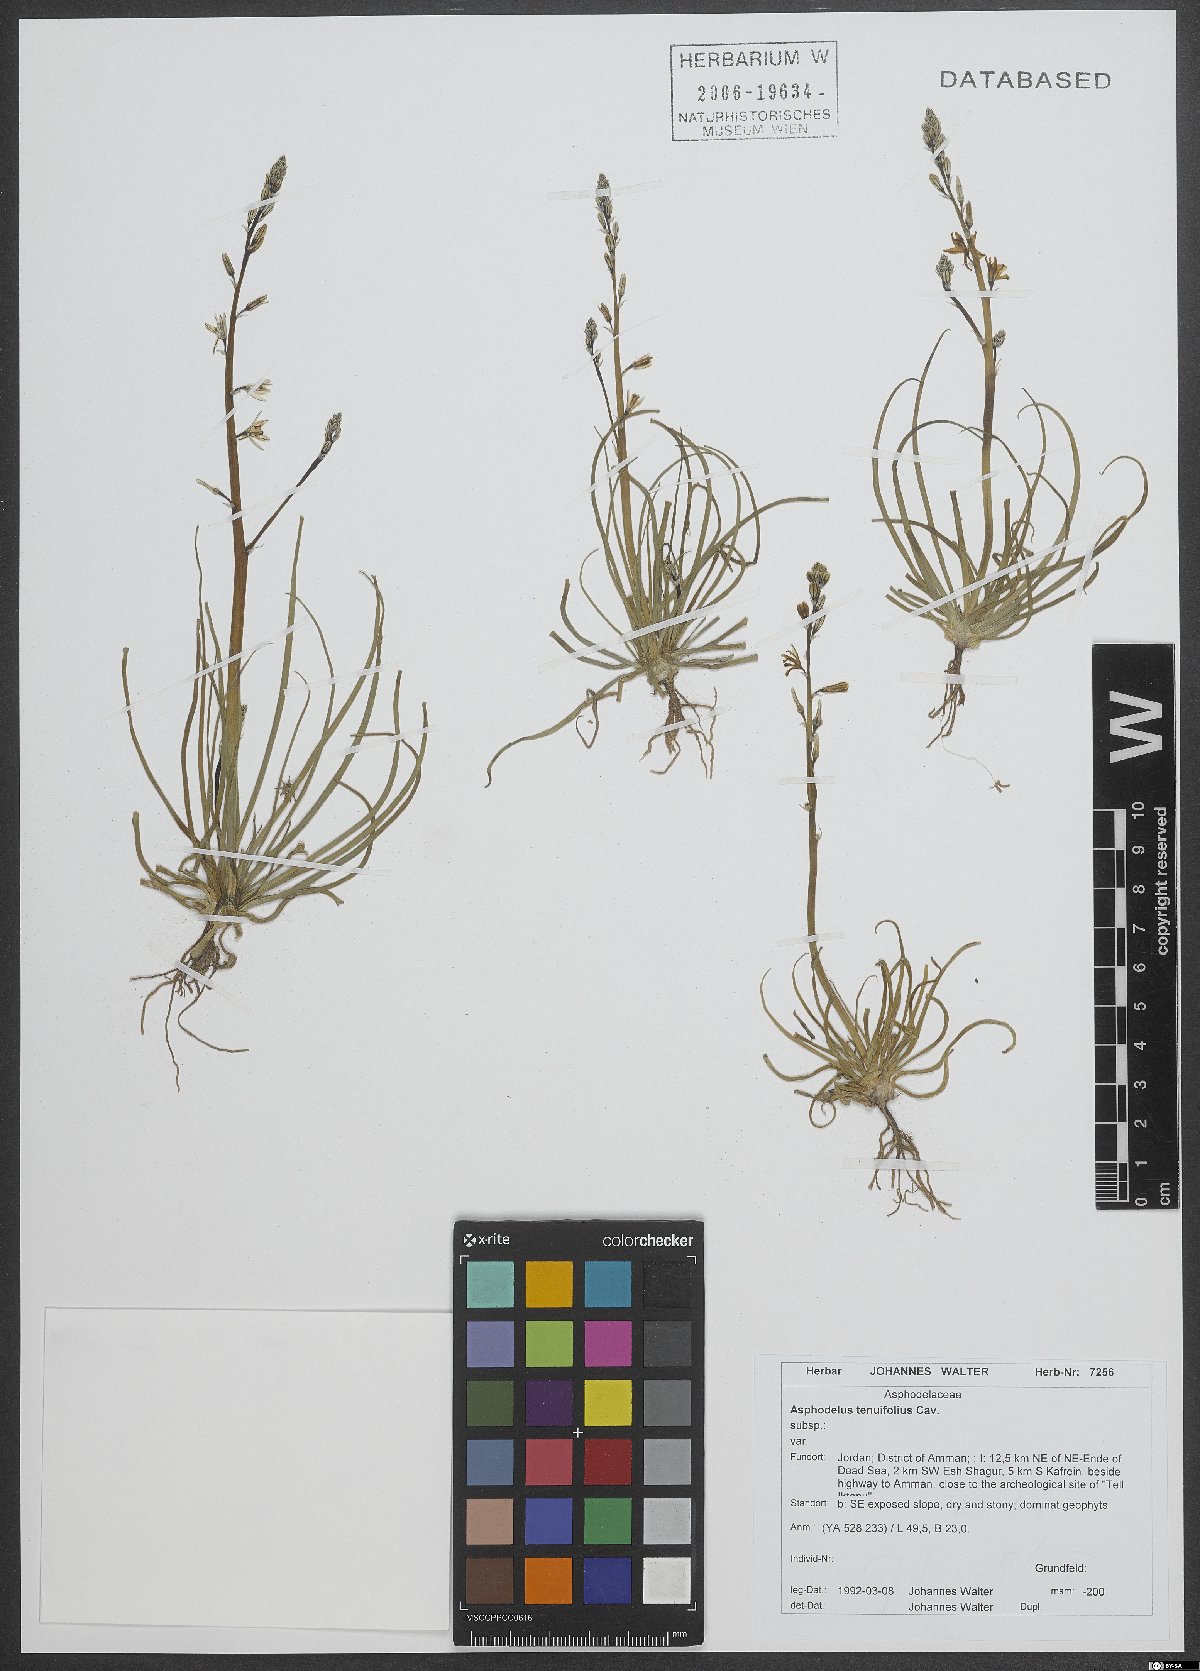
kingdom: Plantae
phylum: Tracheophyta
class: Liliopsida
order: Asparagales
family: Asphodelaceae
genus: Asphodelus
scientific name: Asphodelus tenuifolius
